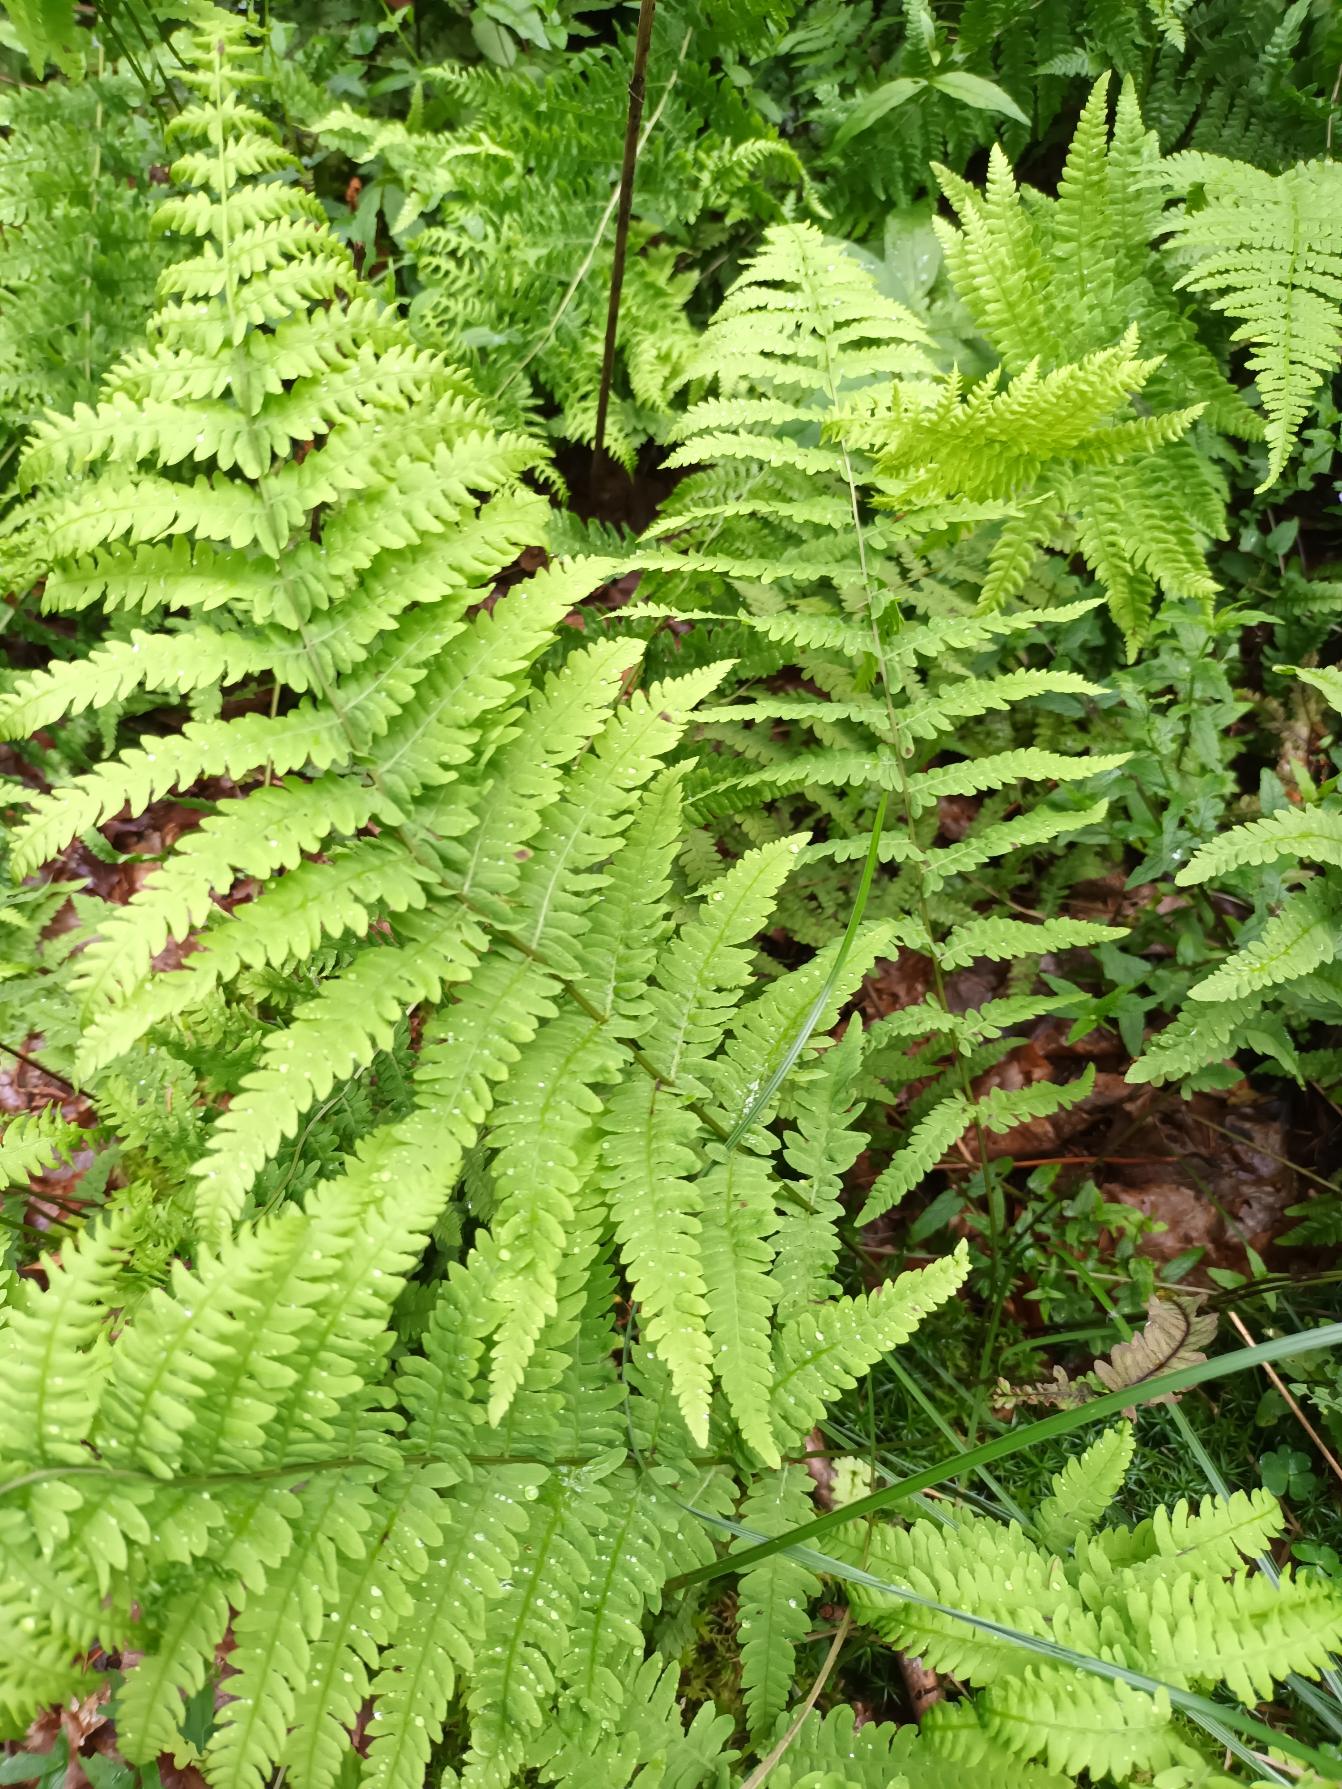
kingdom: Plantae
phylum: Tracheophyta
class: Polypodiopsida
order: Polypodiales
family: Thelypteridaceae
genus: Thelypteris
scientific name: Thelypteris palustris
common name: Kærmangeløv
